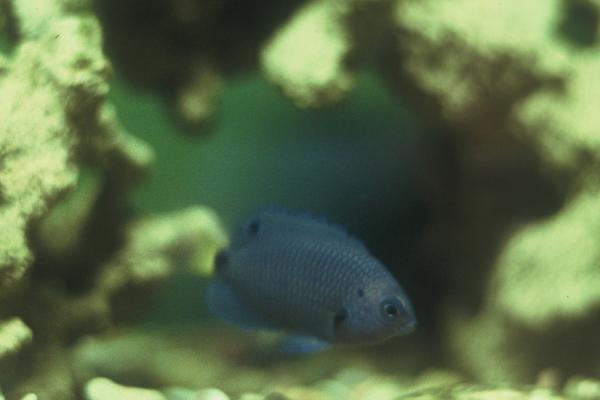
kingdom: Animalia
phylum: Chordata
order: Perciformes
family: Pomacentridae
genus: Pomacentrus
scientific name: Pomacentrus trichrourus
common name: Paletail damsel
